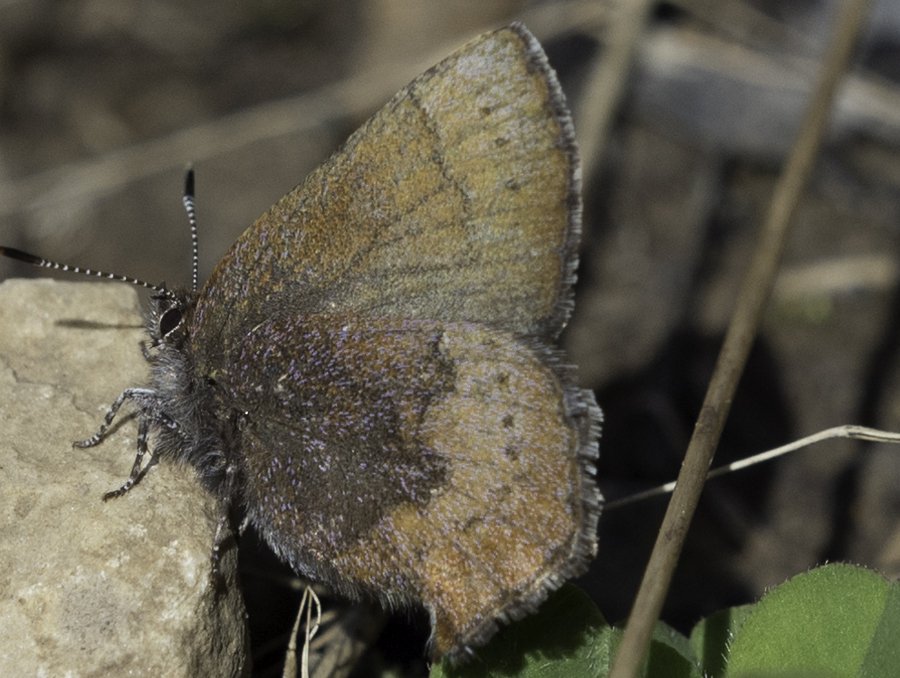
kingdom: Animalia
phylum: Arthropoda
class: Insecta
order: Lepidoptera
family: Lycaenidae
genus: Incisalia
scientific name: Incisalia irioides
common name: Brown Elfin
